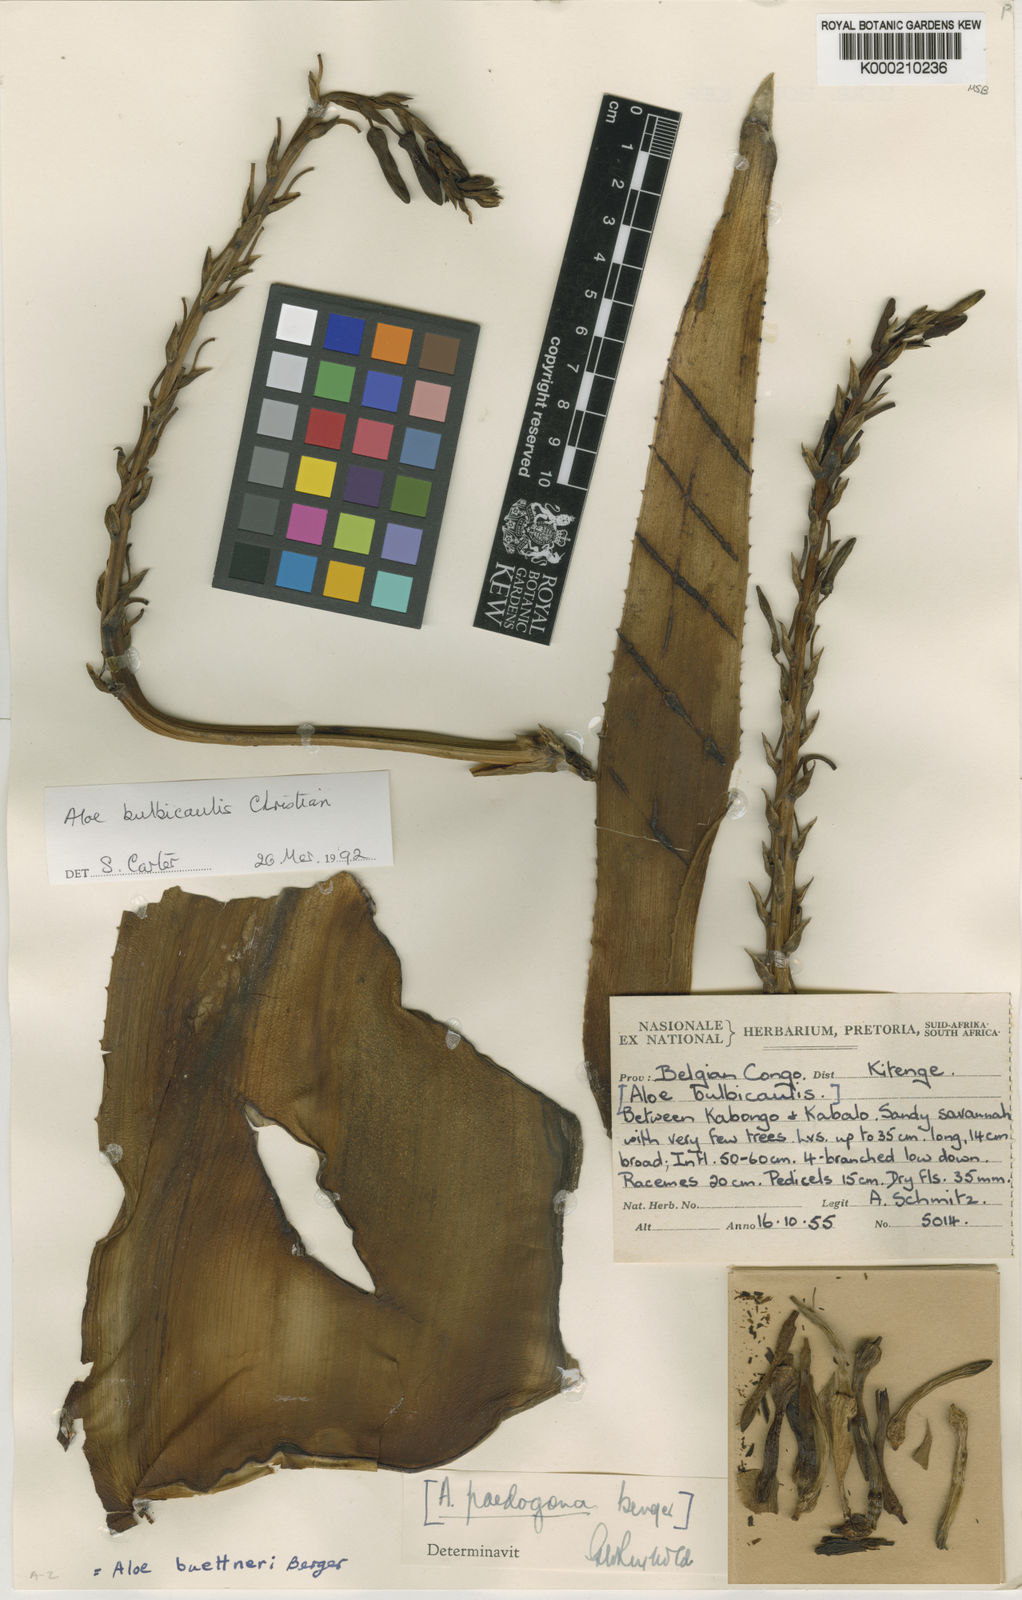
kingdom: Plantae
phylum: Tracheophyta
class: Liliopsida
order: Asparagales
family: Asphodelaceae
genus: Aloe
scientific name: Aloe bulbicaulis
